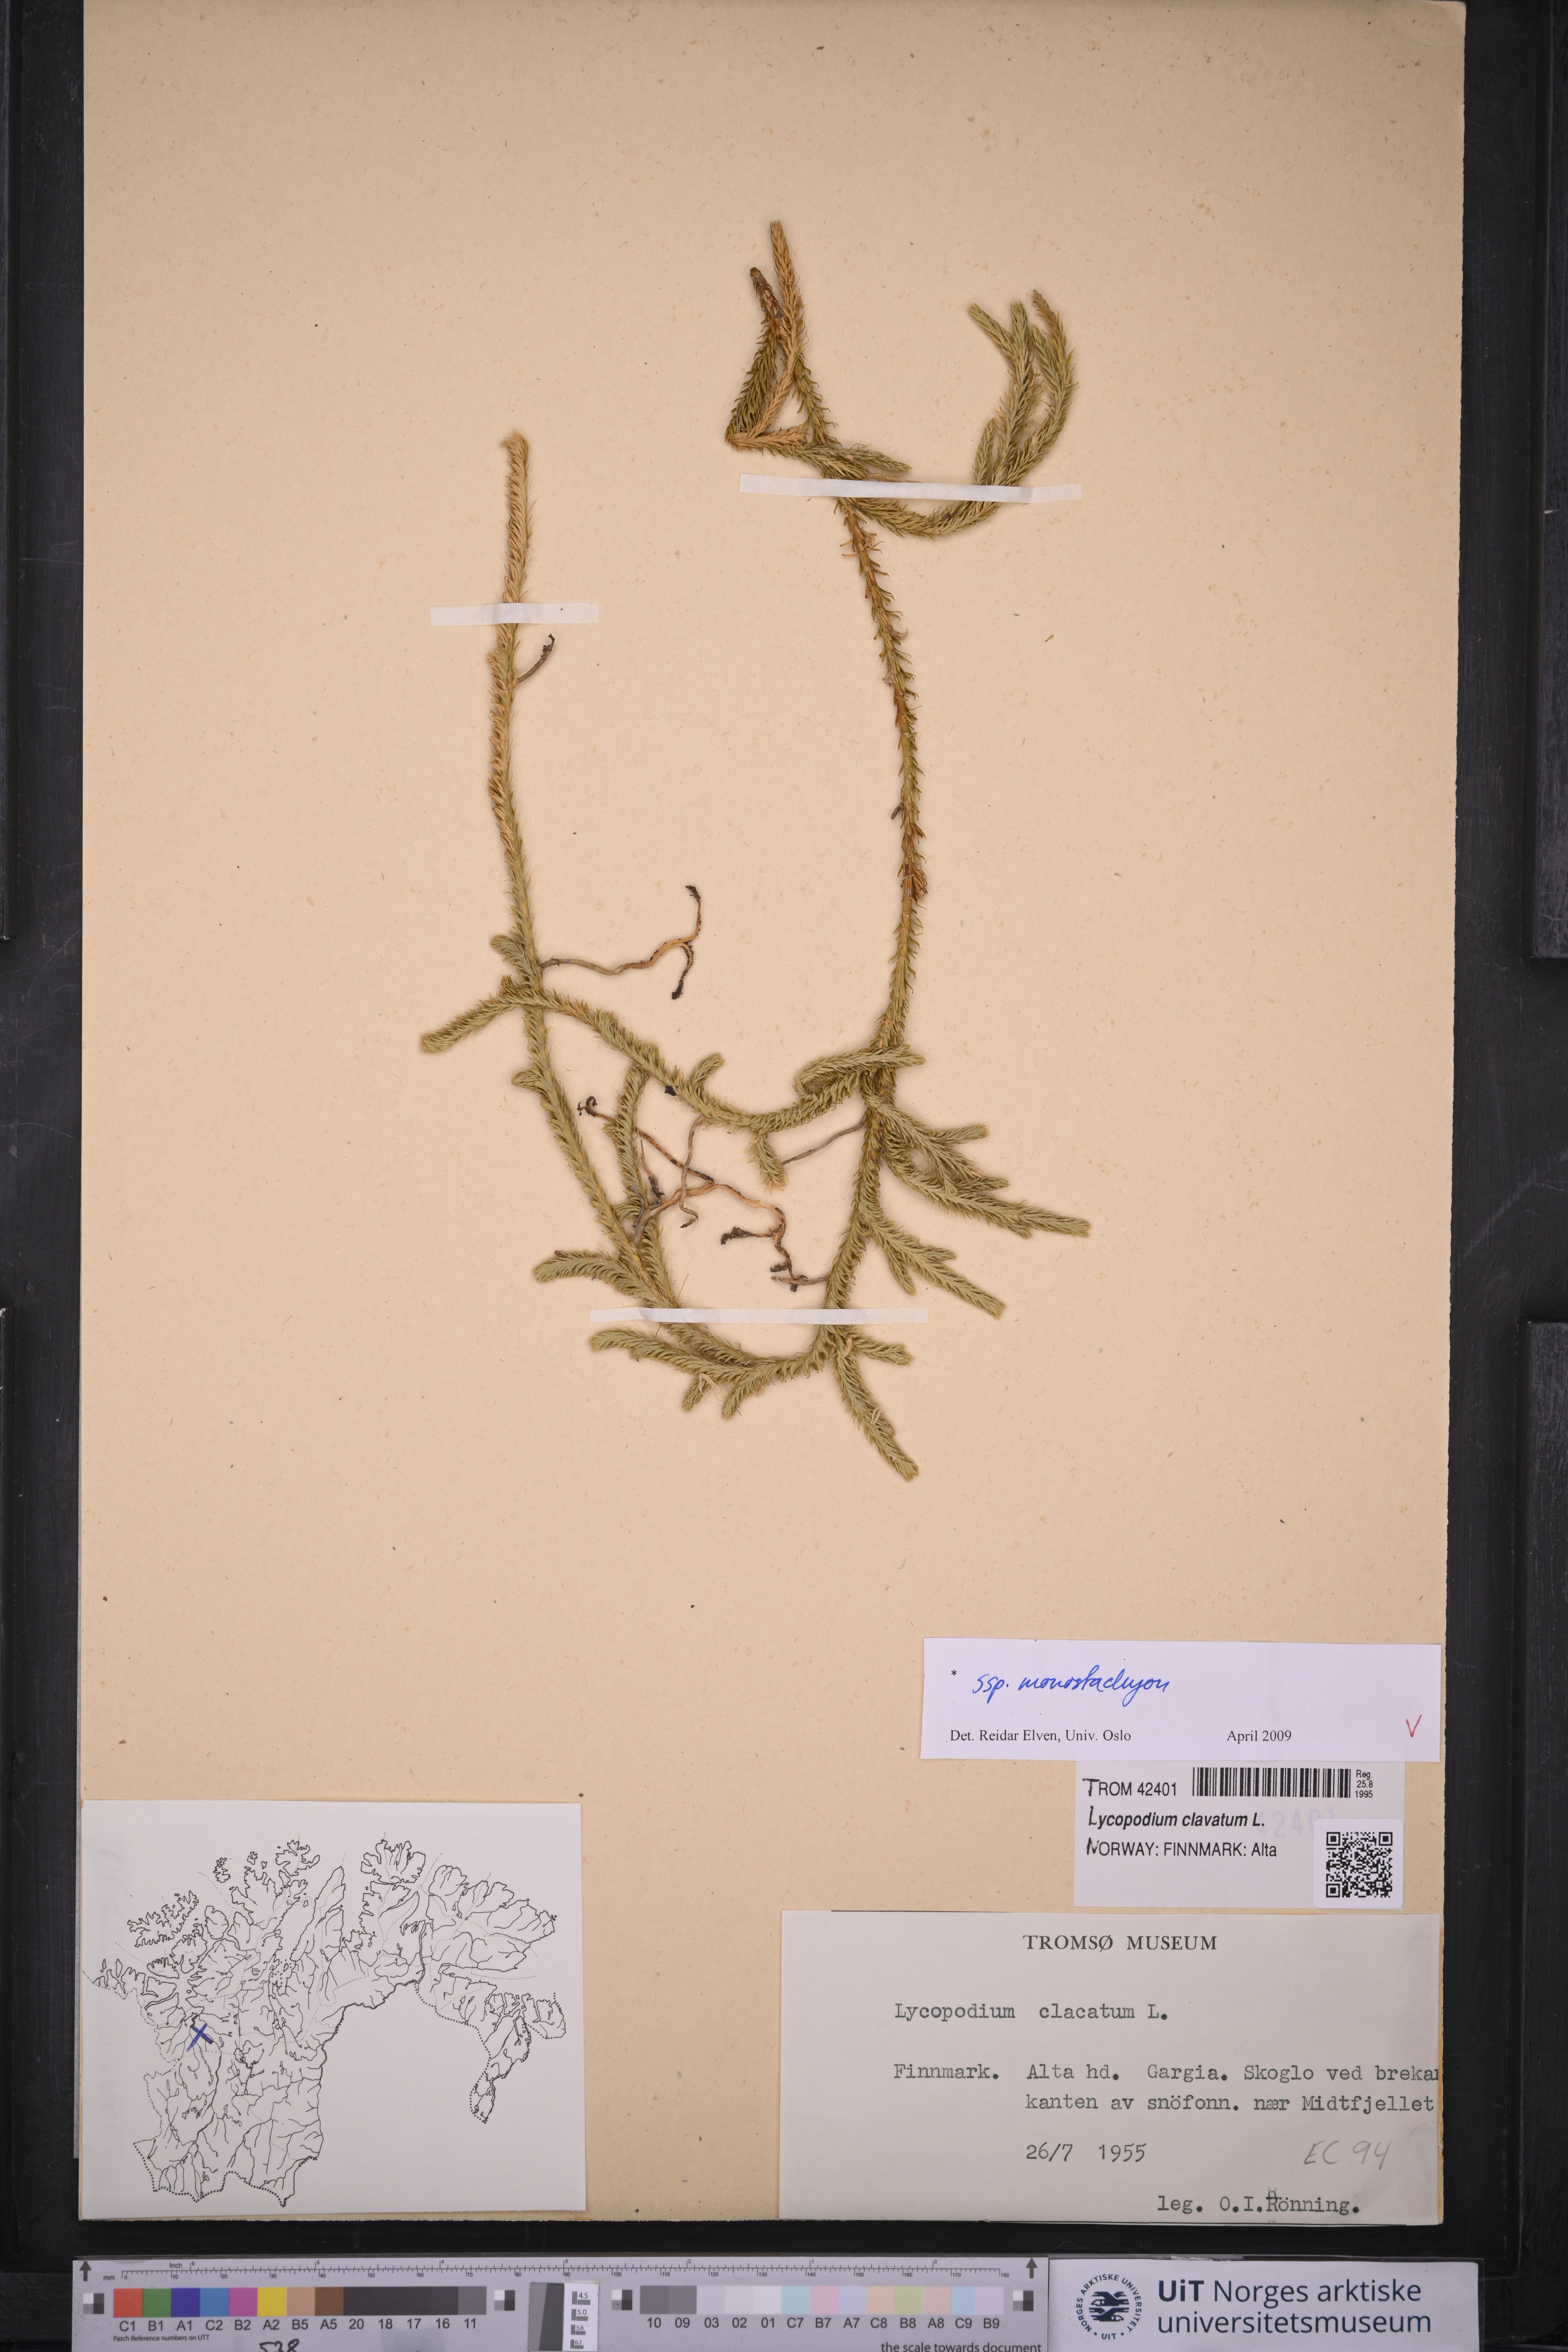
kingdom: Plantae
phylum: Tracheophyta
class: Lycopodiopsida
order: Lycopodiales
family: Lycopodiaceae
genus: Lycopodium
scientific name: Lycopodium lagopus
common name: One-cone clubmoss
